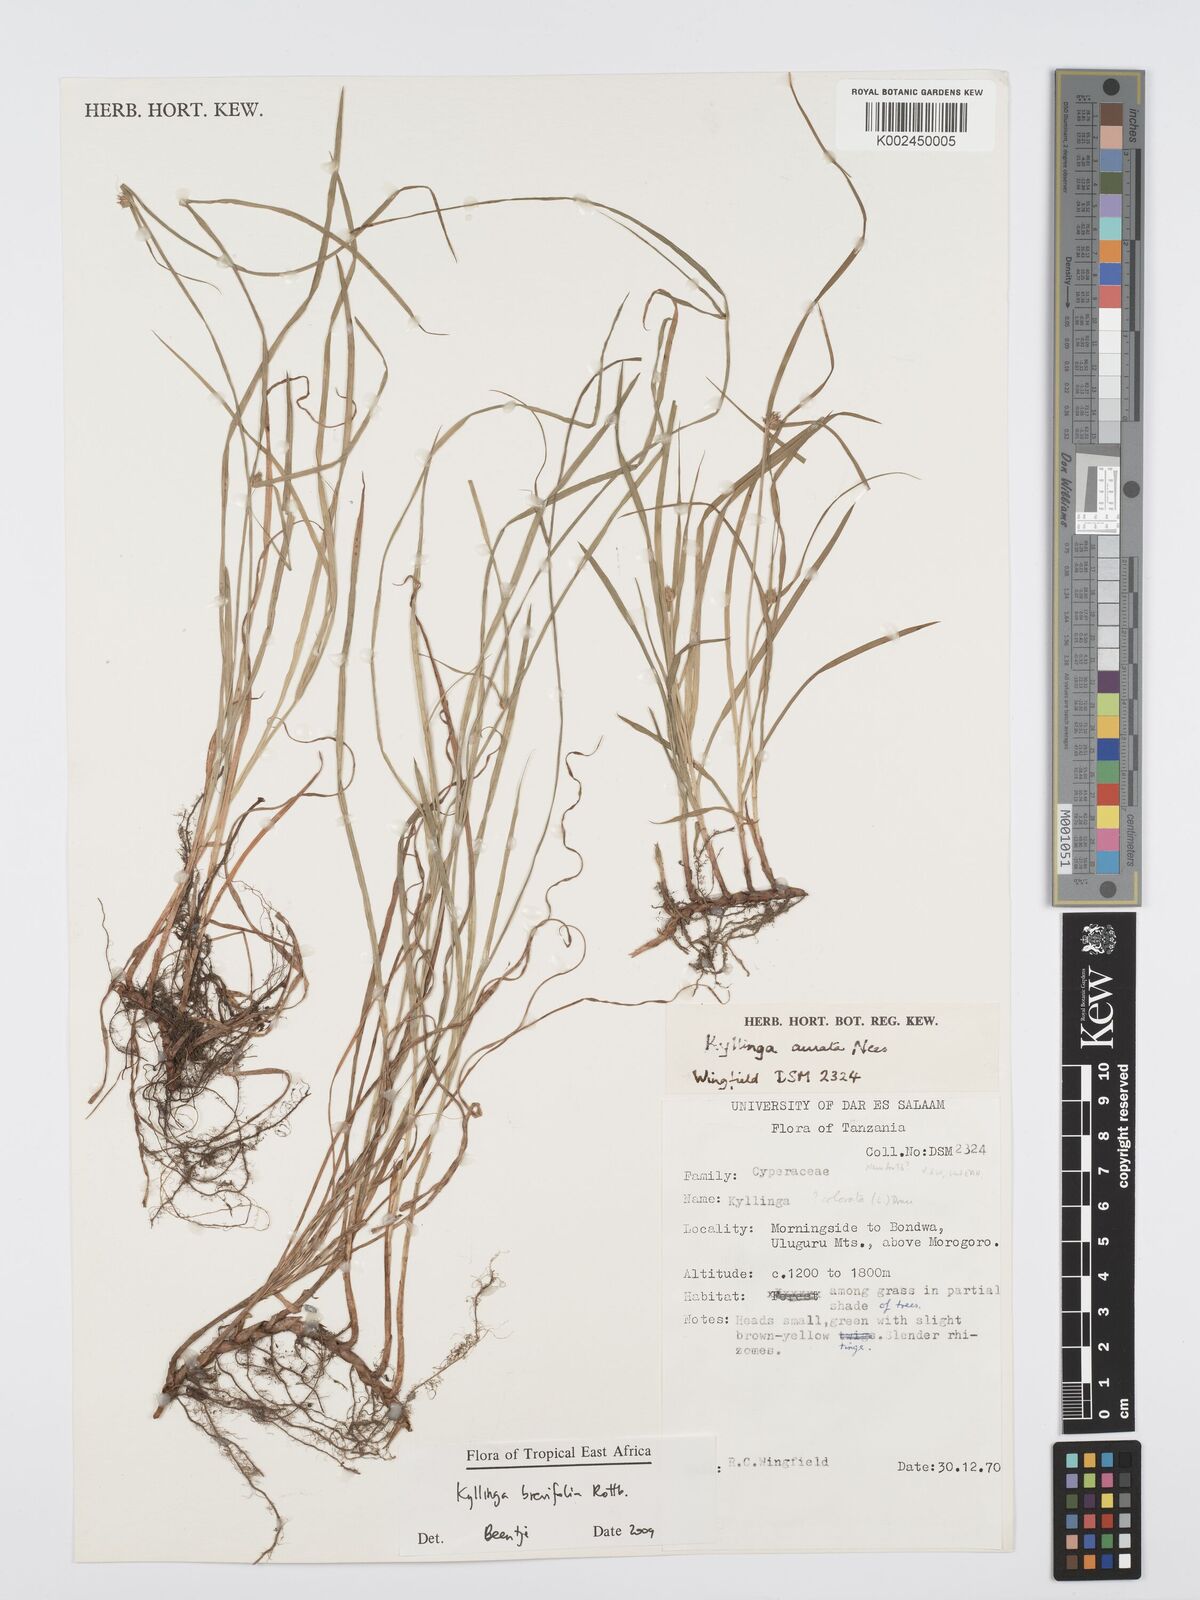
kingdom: Plantae
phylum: Tracheophyta
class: Liliopsida
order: Poales
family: Cyperaceae
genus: Cyperus
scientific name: Cyperus brevifolius
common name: Globe kyllinga
